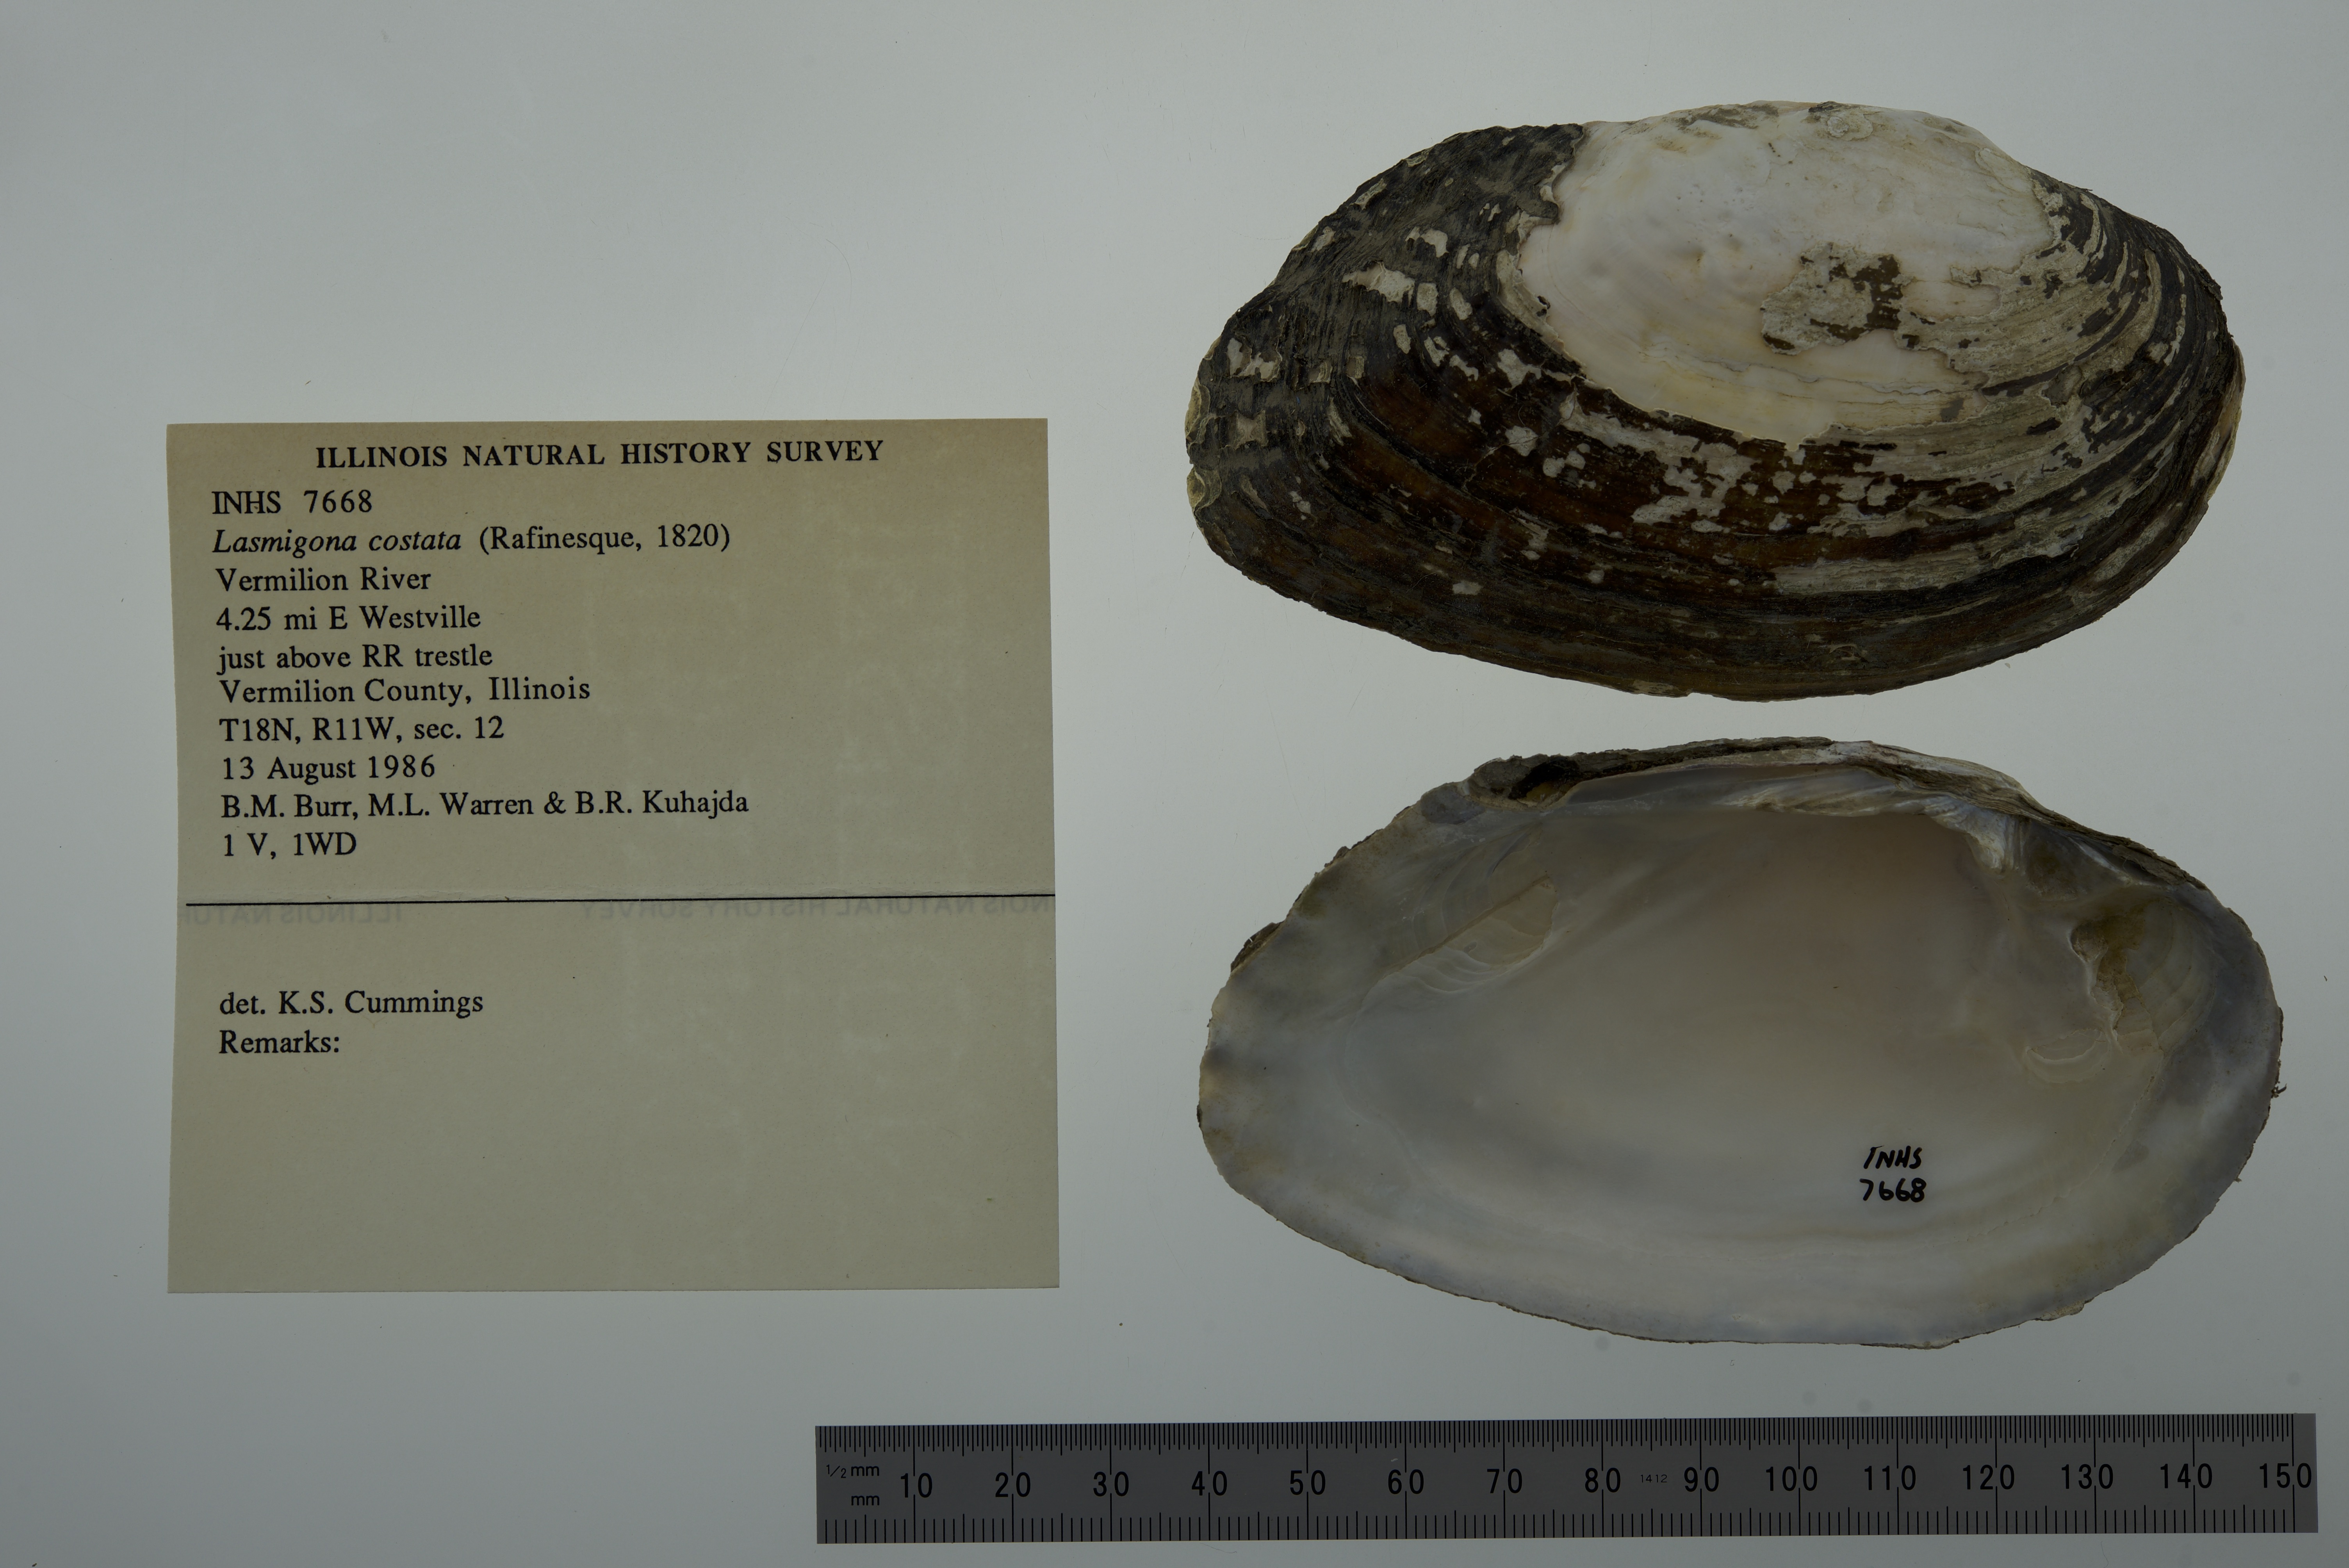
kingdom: Animalia
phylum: Mollusca
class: Bivalvia
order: Unionida
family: Unionidae
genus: Lasmigona
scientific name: Lasmigona costata
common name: Flutedshell
